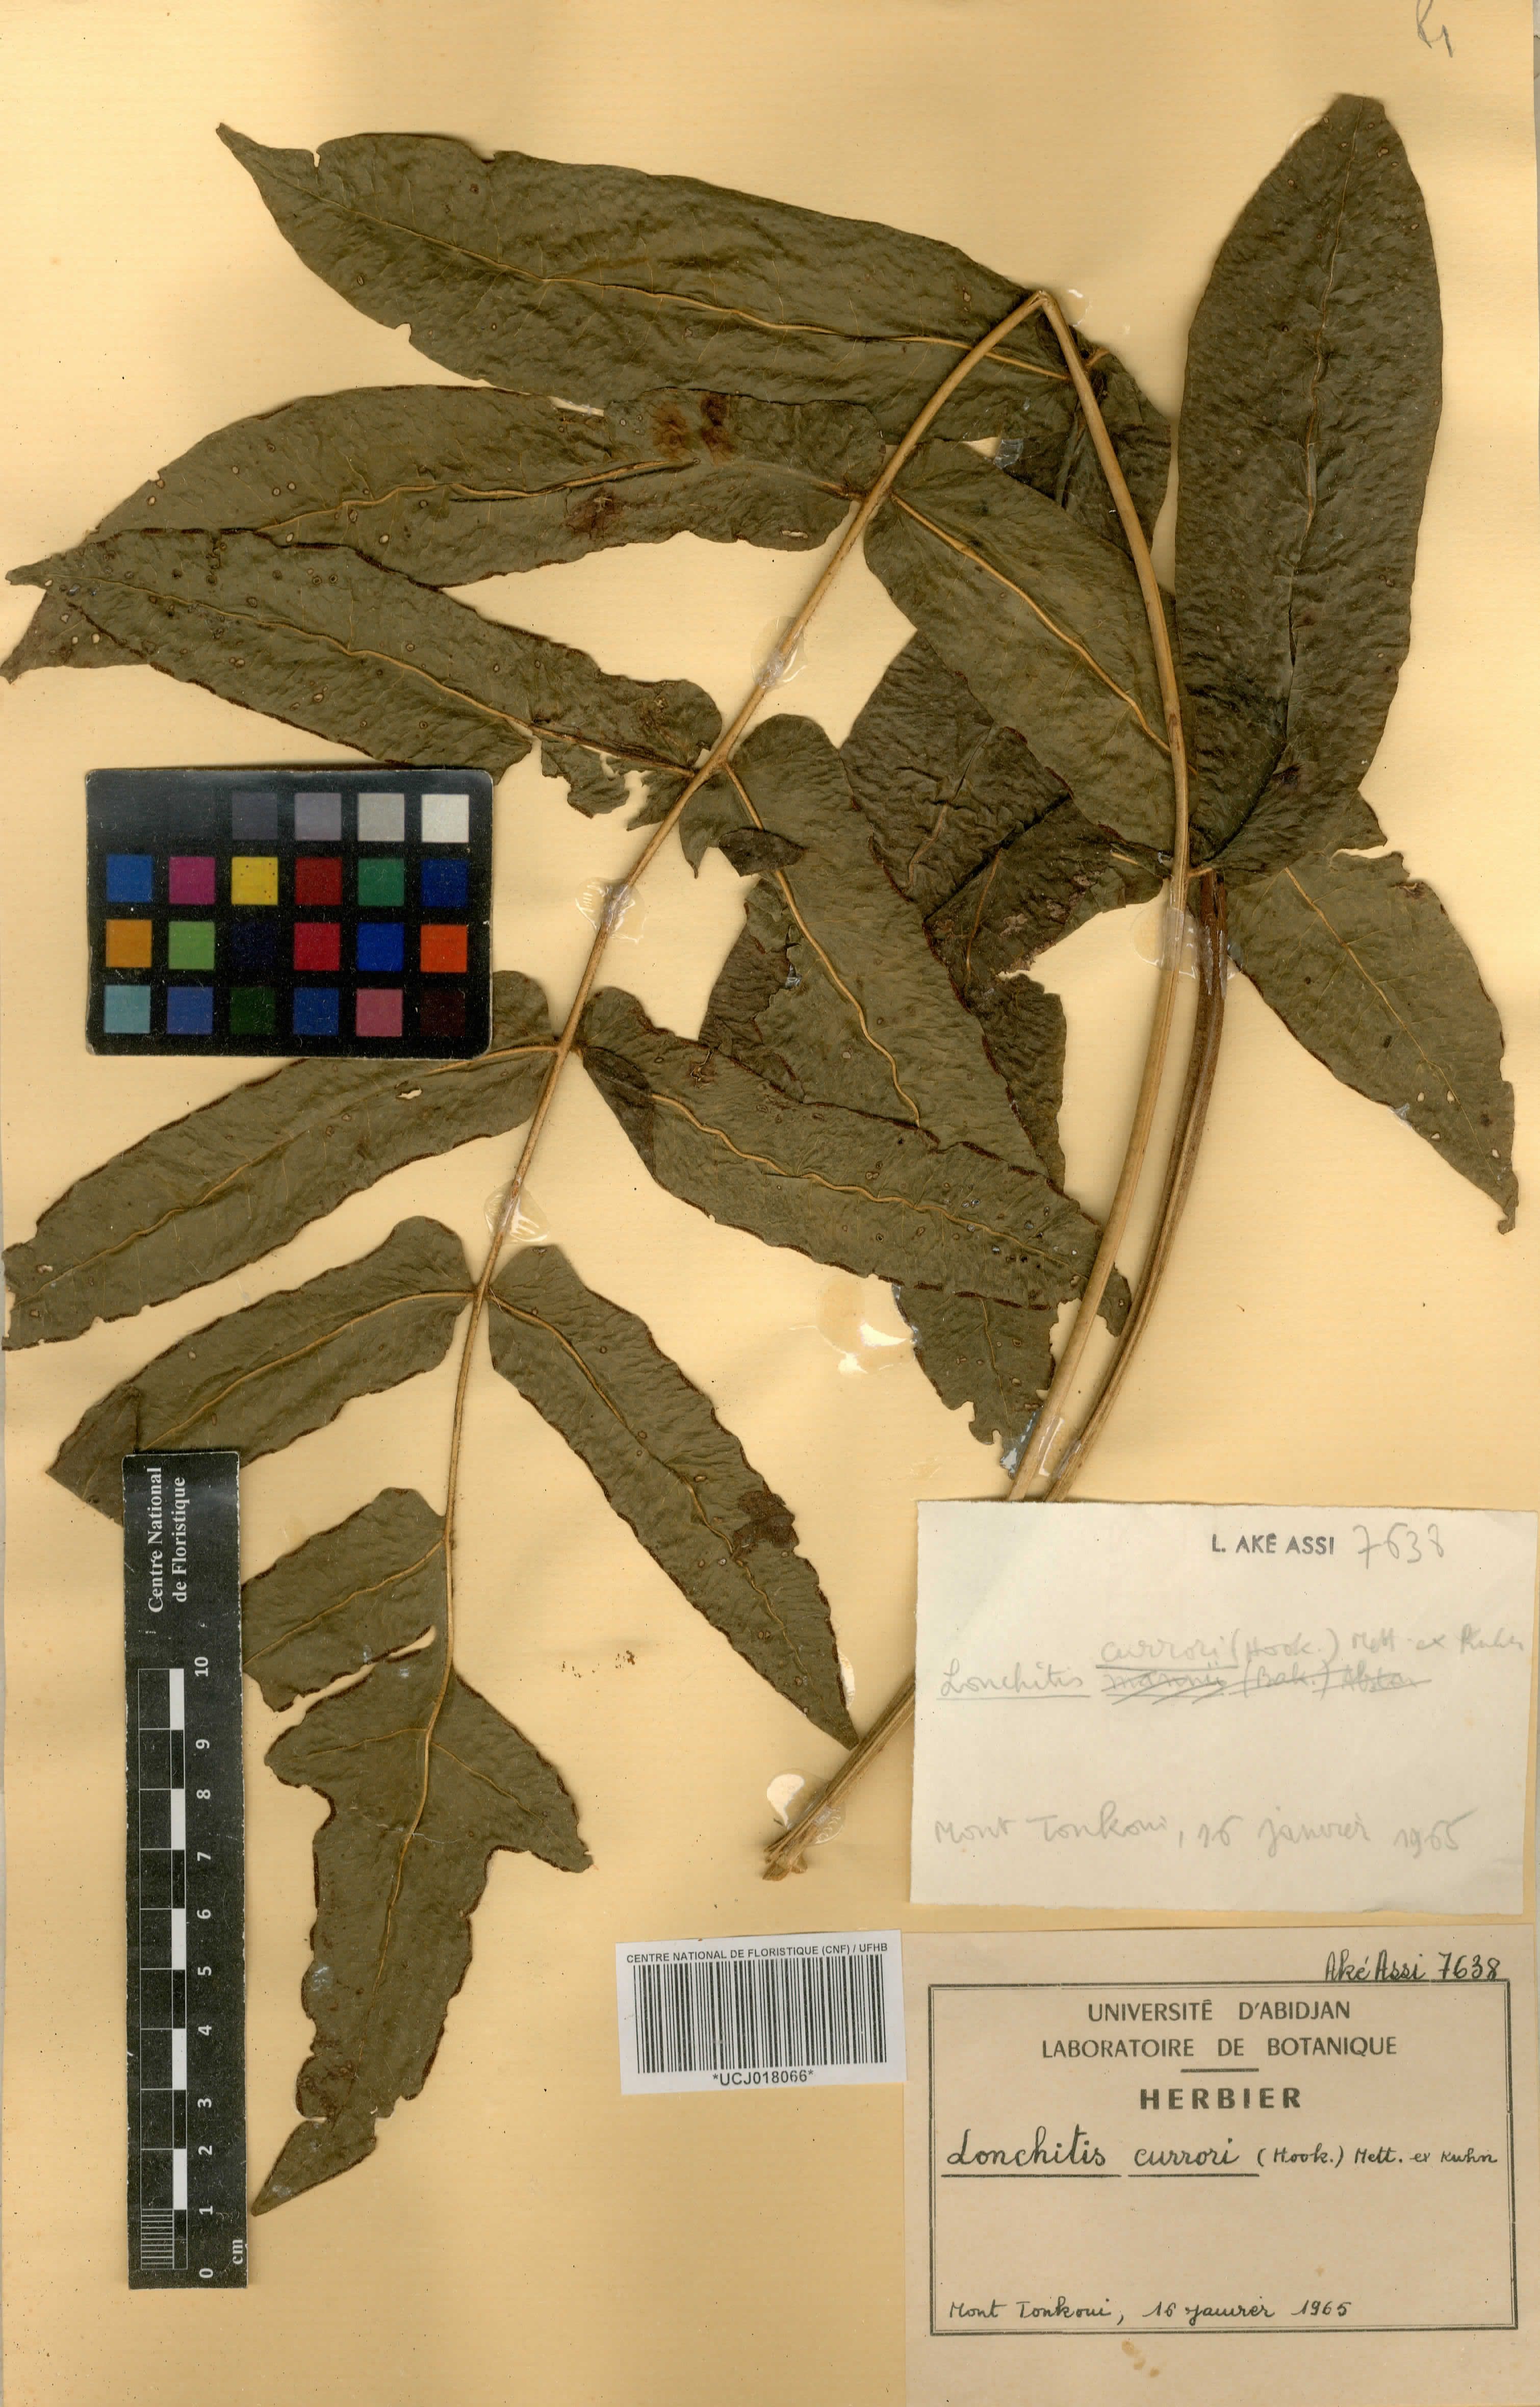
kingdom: Plantae
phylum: Tracheophyta
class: Polypodiopsida
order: Polypodiales
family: Dennstaedtiaceae
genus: Blotiella
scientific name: Blotiella currorii
